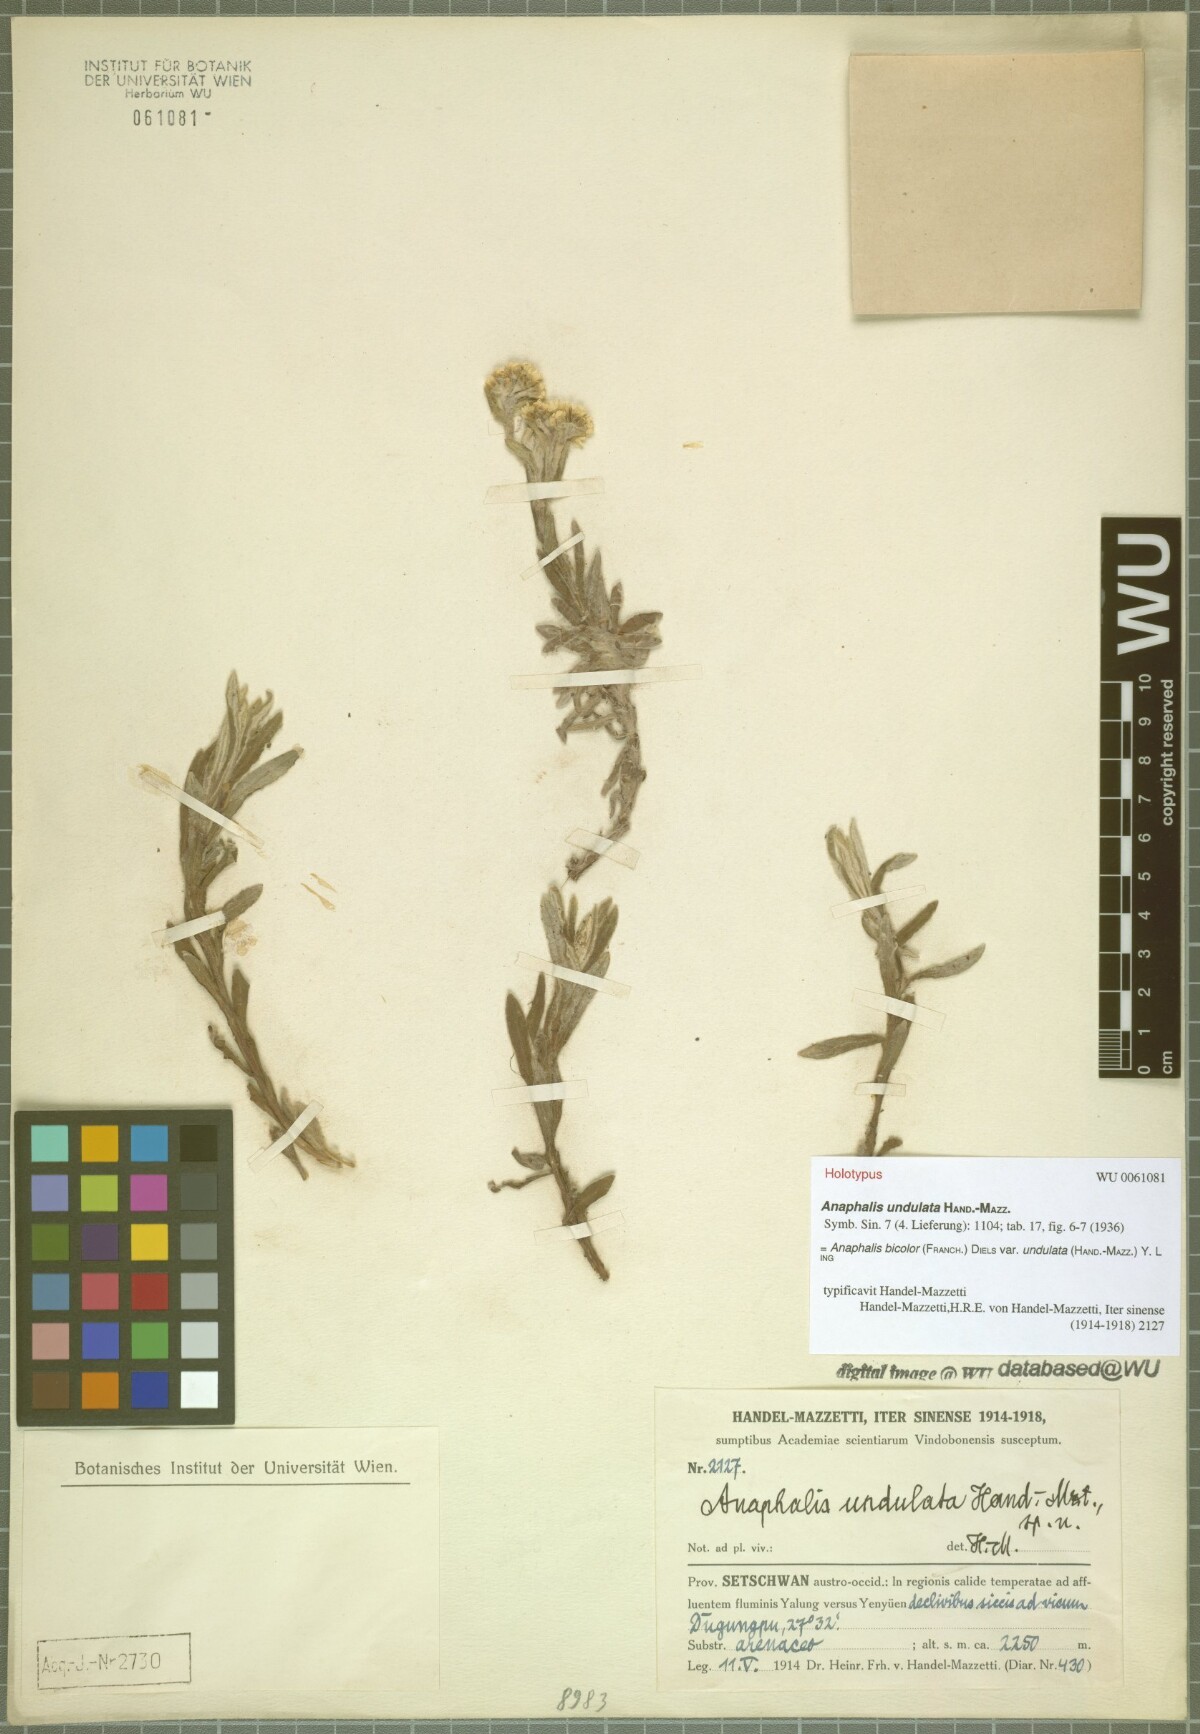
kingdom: Plantae
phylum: Tracheophyta
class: Magnoliopsida
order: Asterales
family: Asteraceae
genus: Anaphalis
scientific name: Anaphalis bicolor
